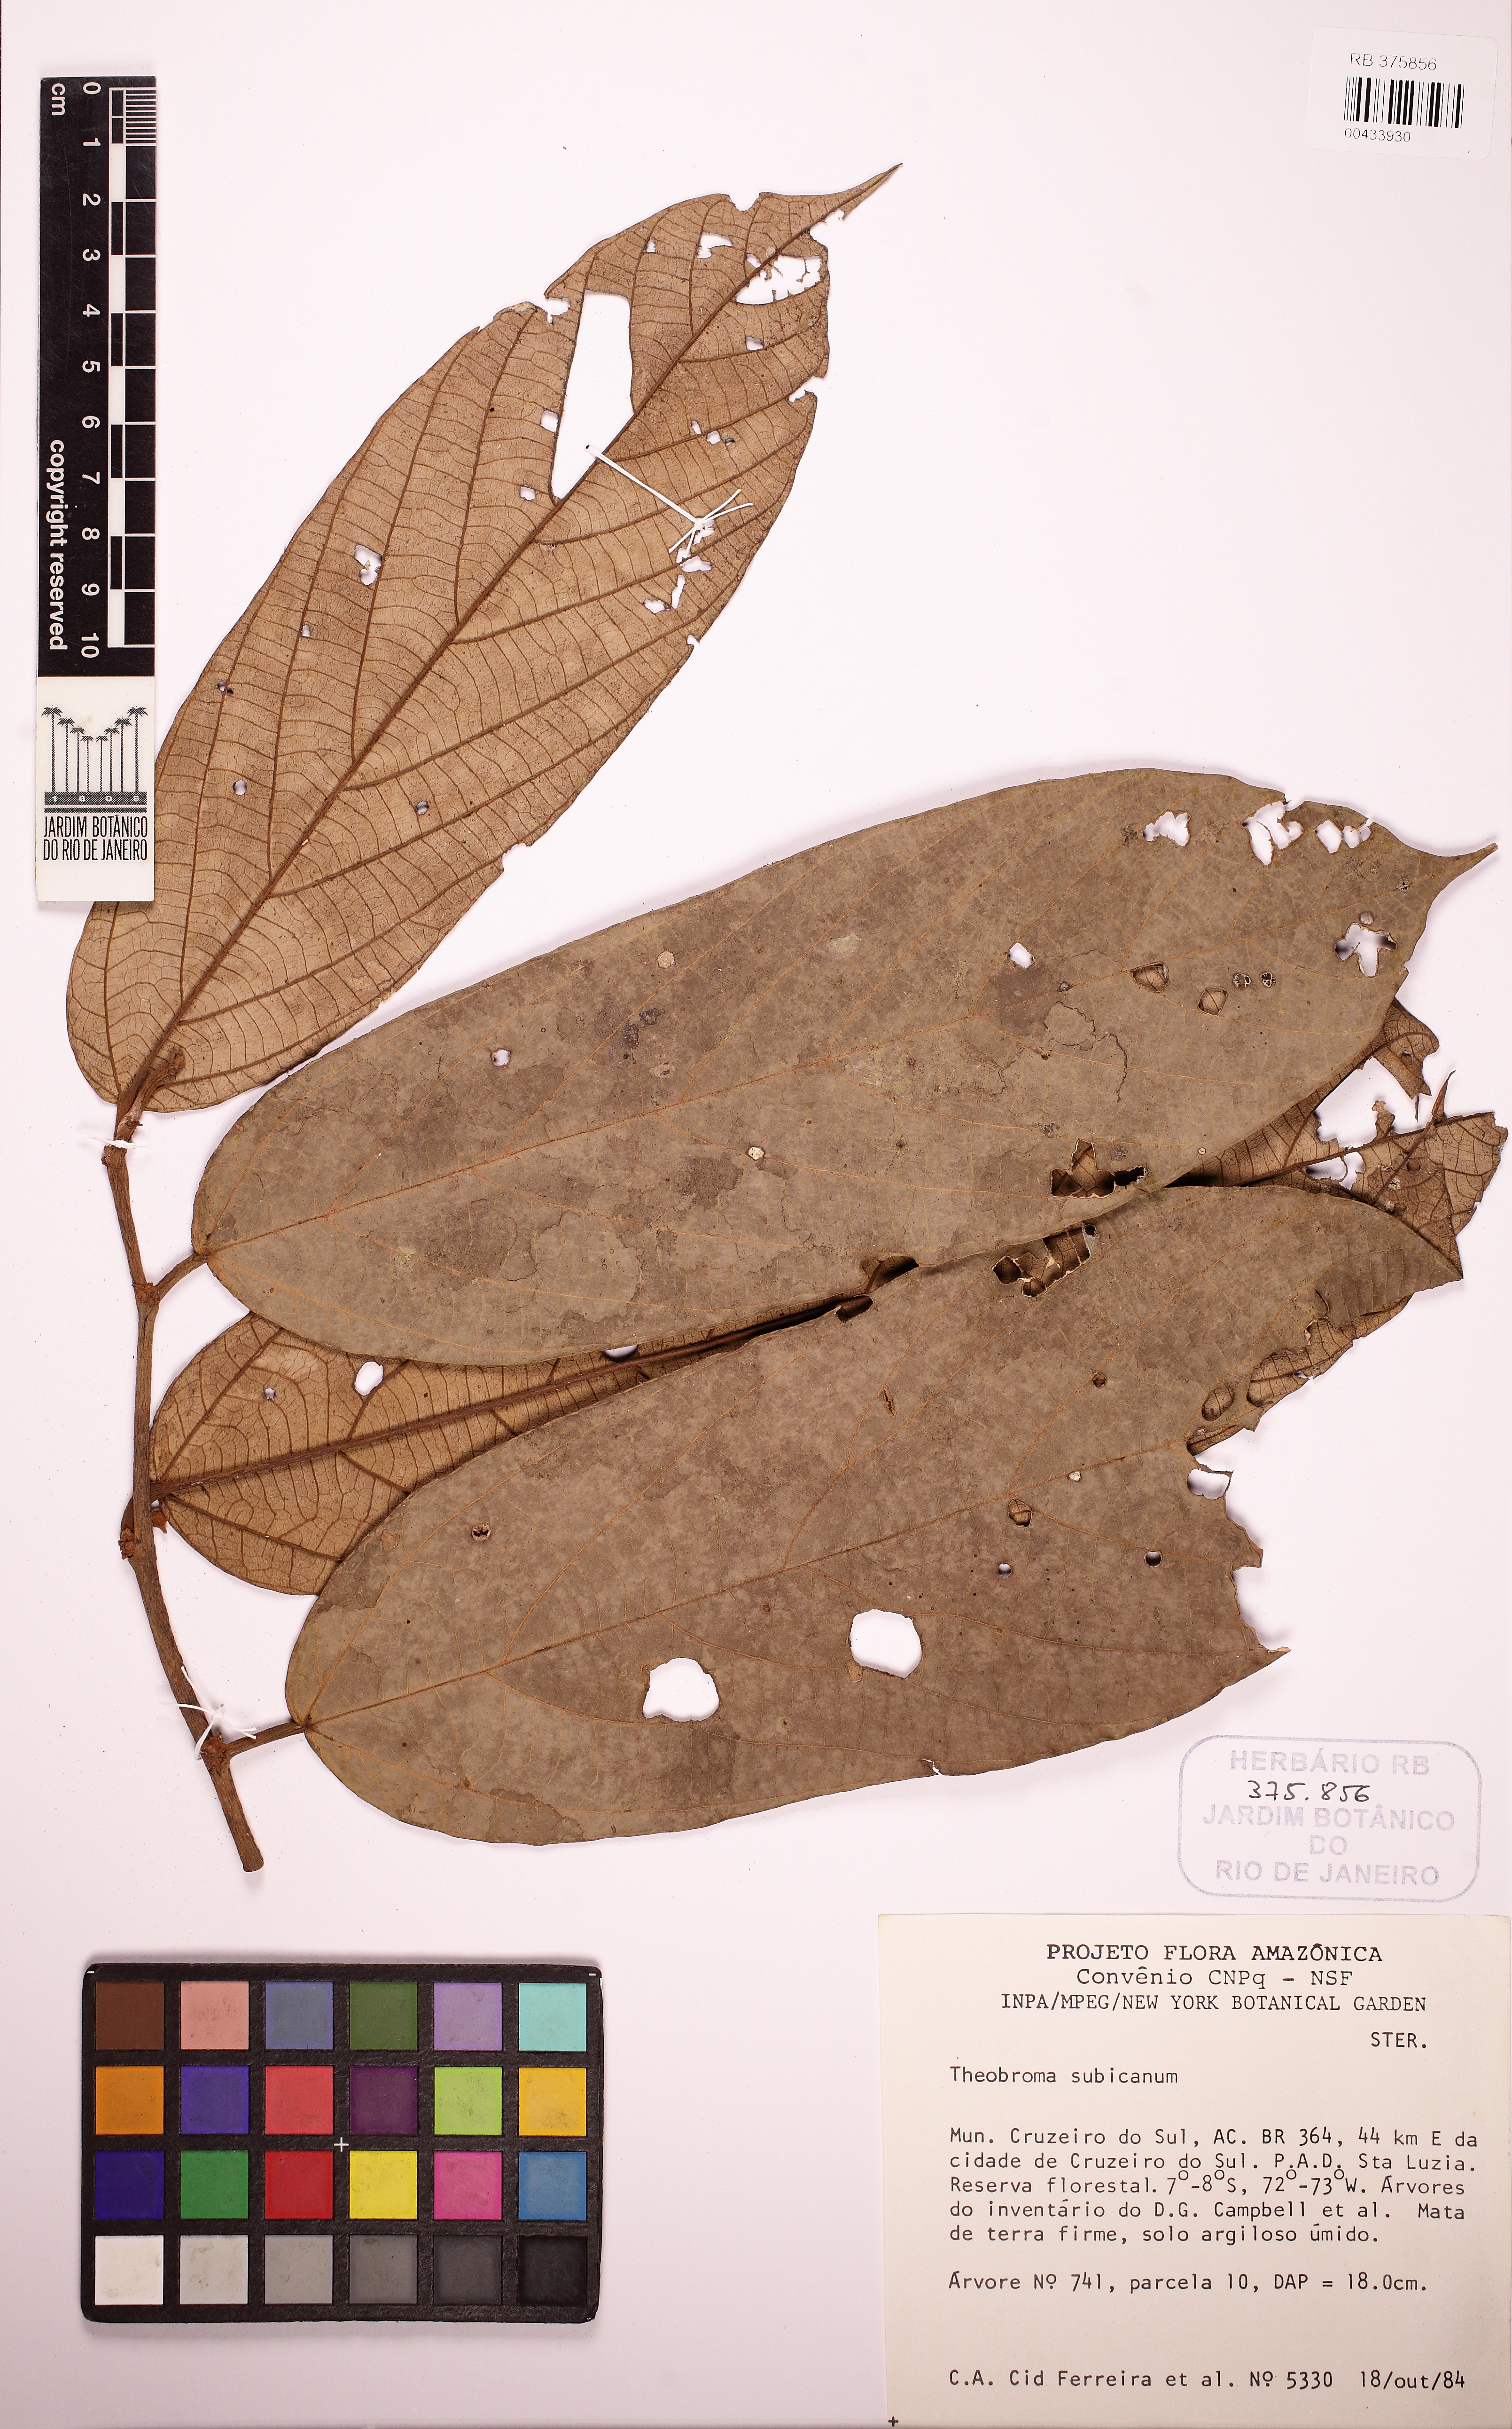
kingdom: Plantae
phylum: Tracheophyta
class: Magnoliopsida
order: Malvales
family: Malvaceae
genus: Theobroma
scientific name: Theobroma subincanum
